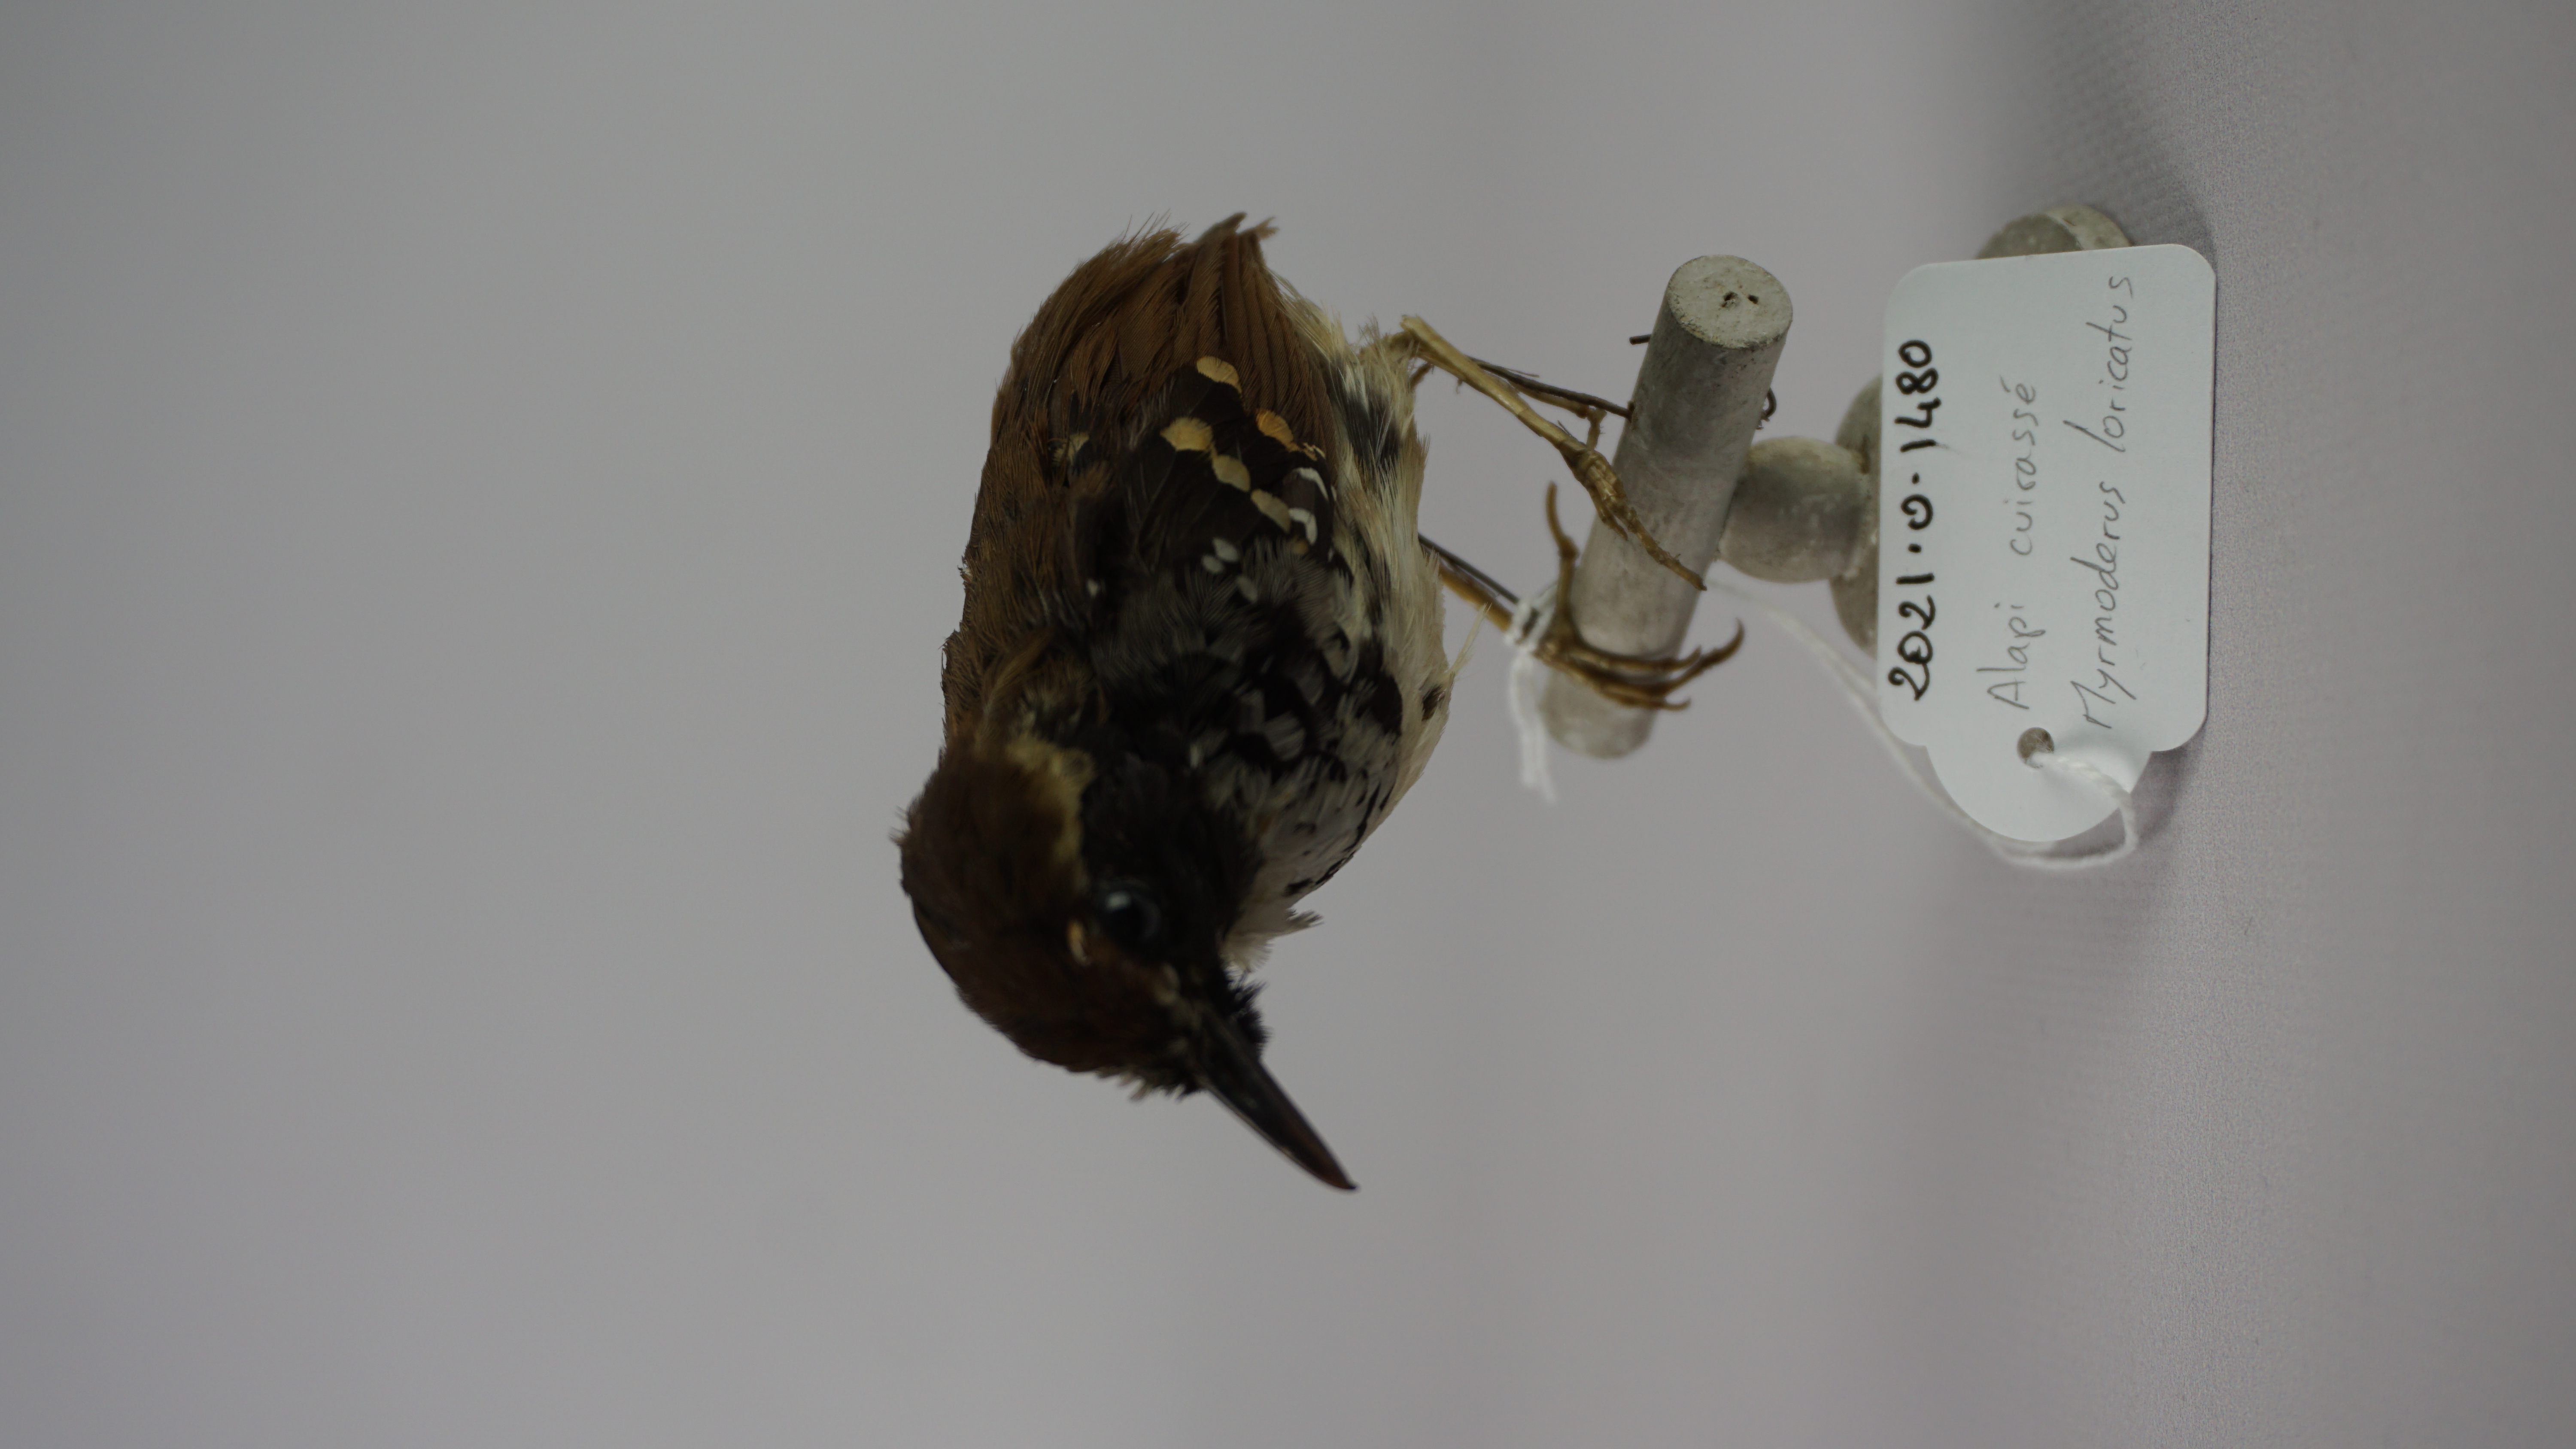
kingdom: Animalia
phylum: Chordata
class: Aves
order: Passeriformes
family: Thamnophilidae
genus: Myrmeciza
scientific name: Myrmeciza loricata
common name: White-bibbed antbird
